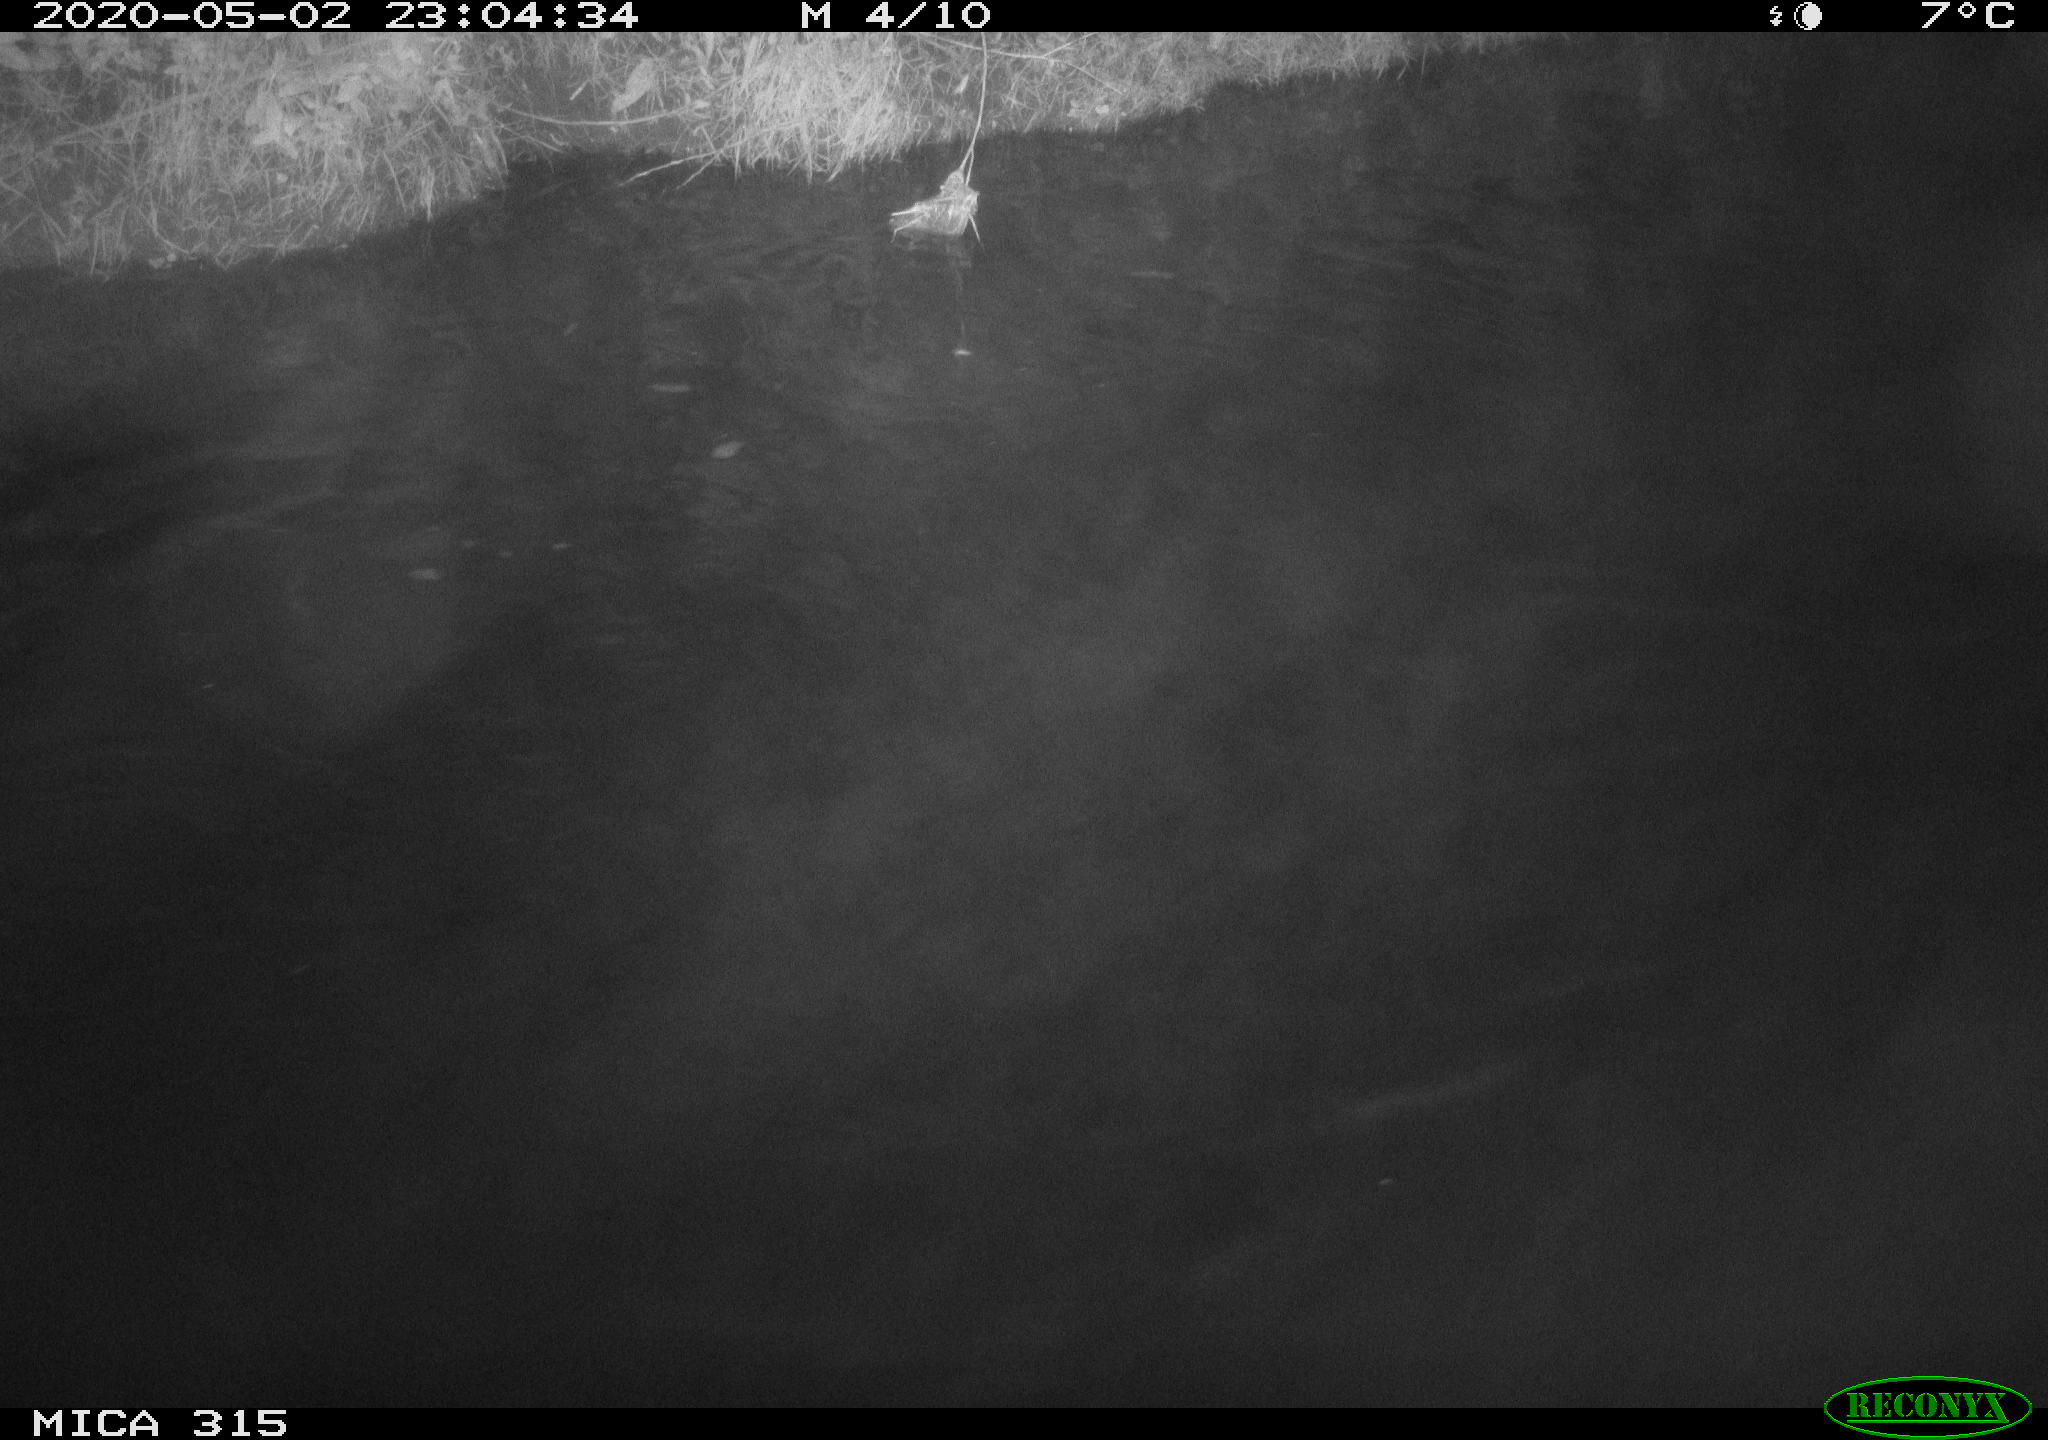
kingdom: Animalia
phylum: Chordata
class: Aves
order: Anseriformes
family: Anatidae
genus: Anas
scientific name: Anas platyrhynchos
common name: Mallard
